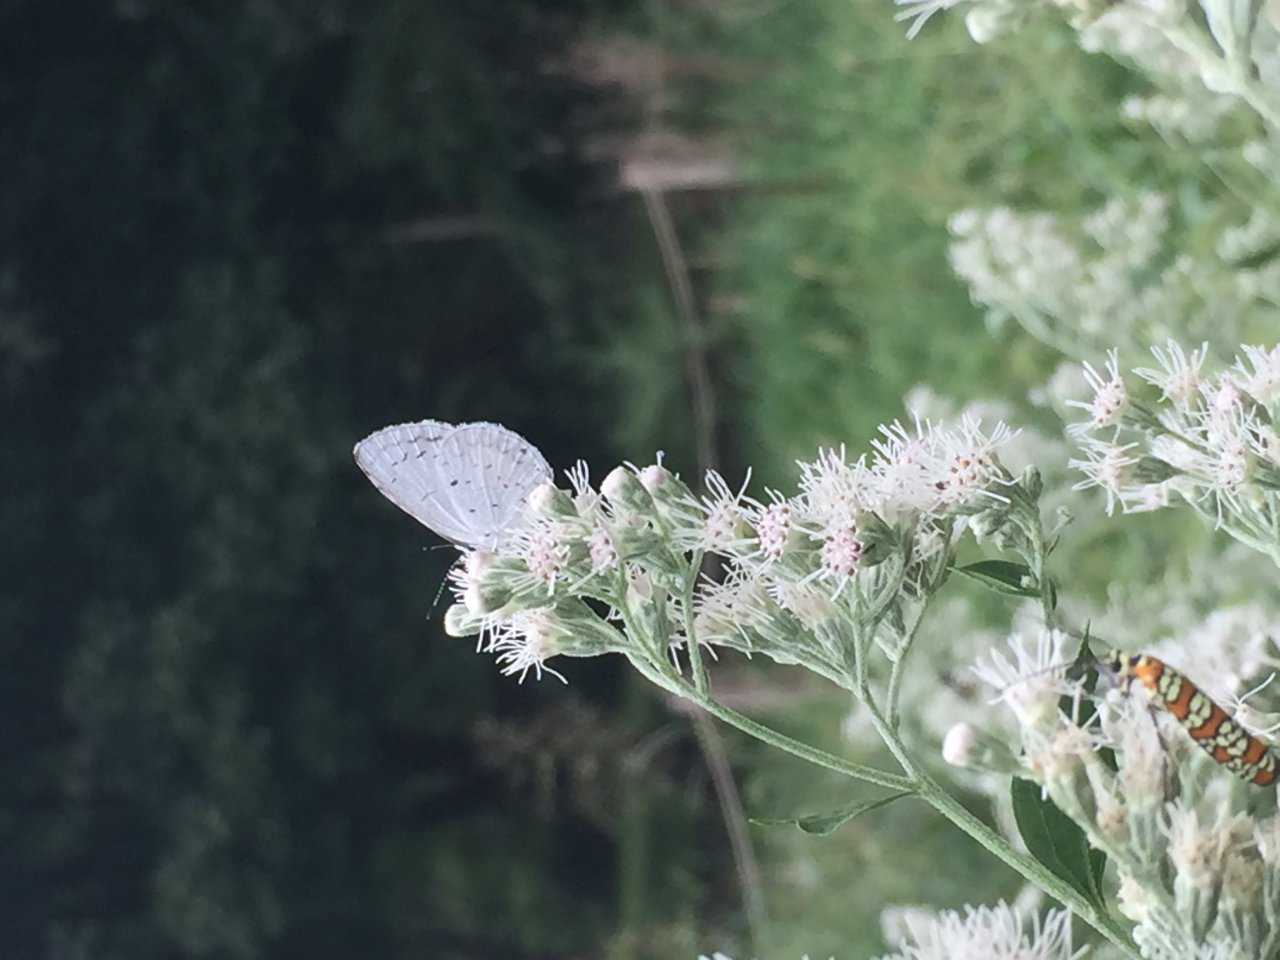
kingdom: Animalia
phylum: Arthropoda
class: Insecta
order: Lepidoptera
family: Lycaenidae
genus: Cyaniris
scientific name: Cyaniris neglecta
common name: Summer Azure
